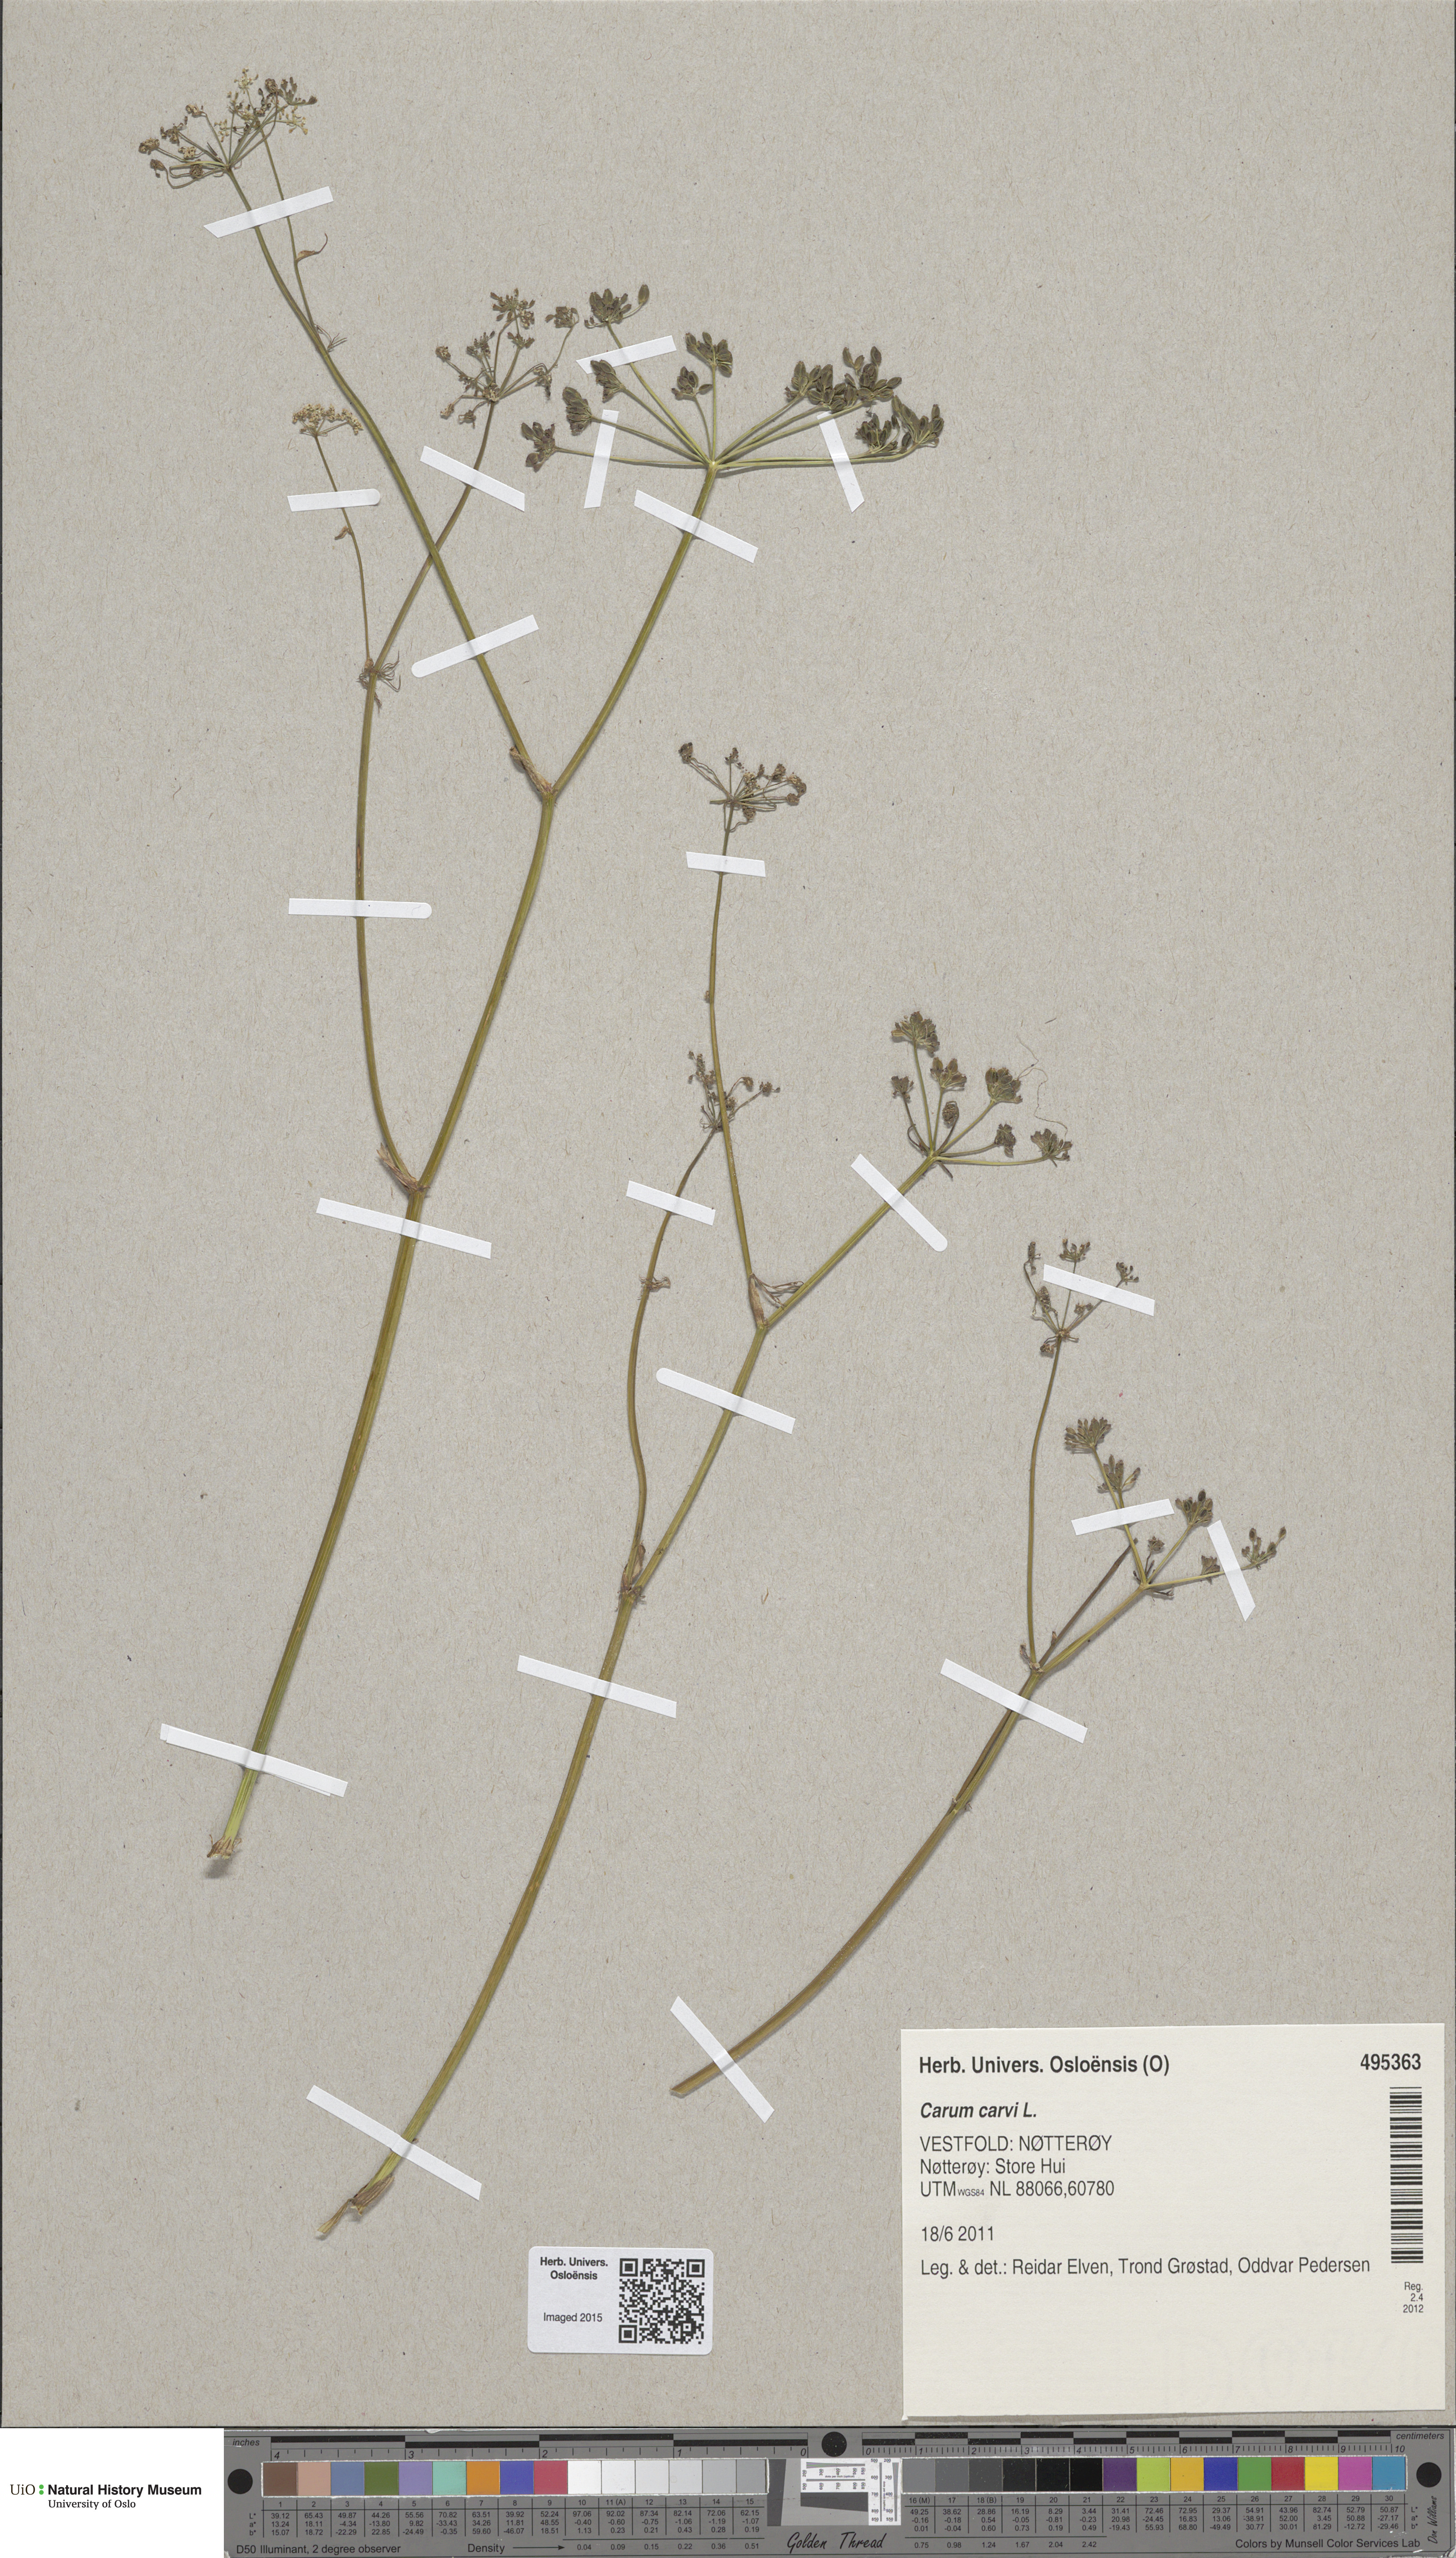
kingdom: Plantae
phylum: Tracheophyta
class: Magnoliopsida
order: Apiales
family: Apiaceae
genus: Carum
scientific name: Carum carvi
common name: Caraway
